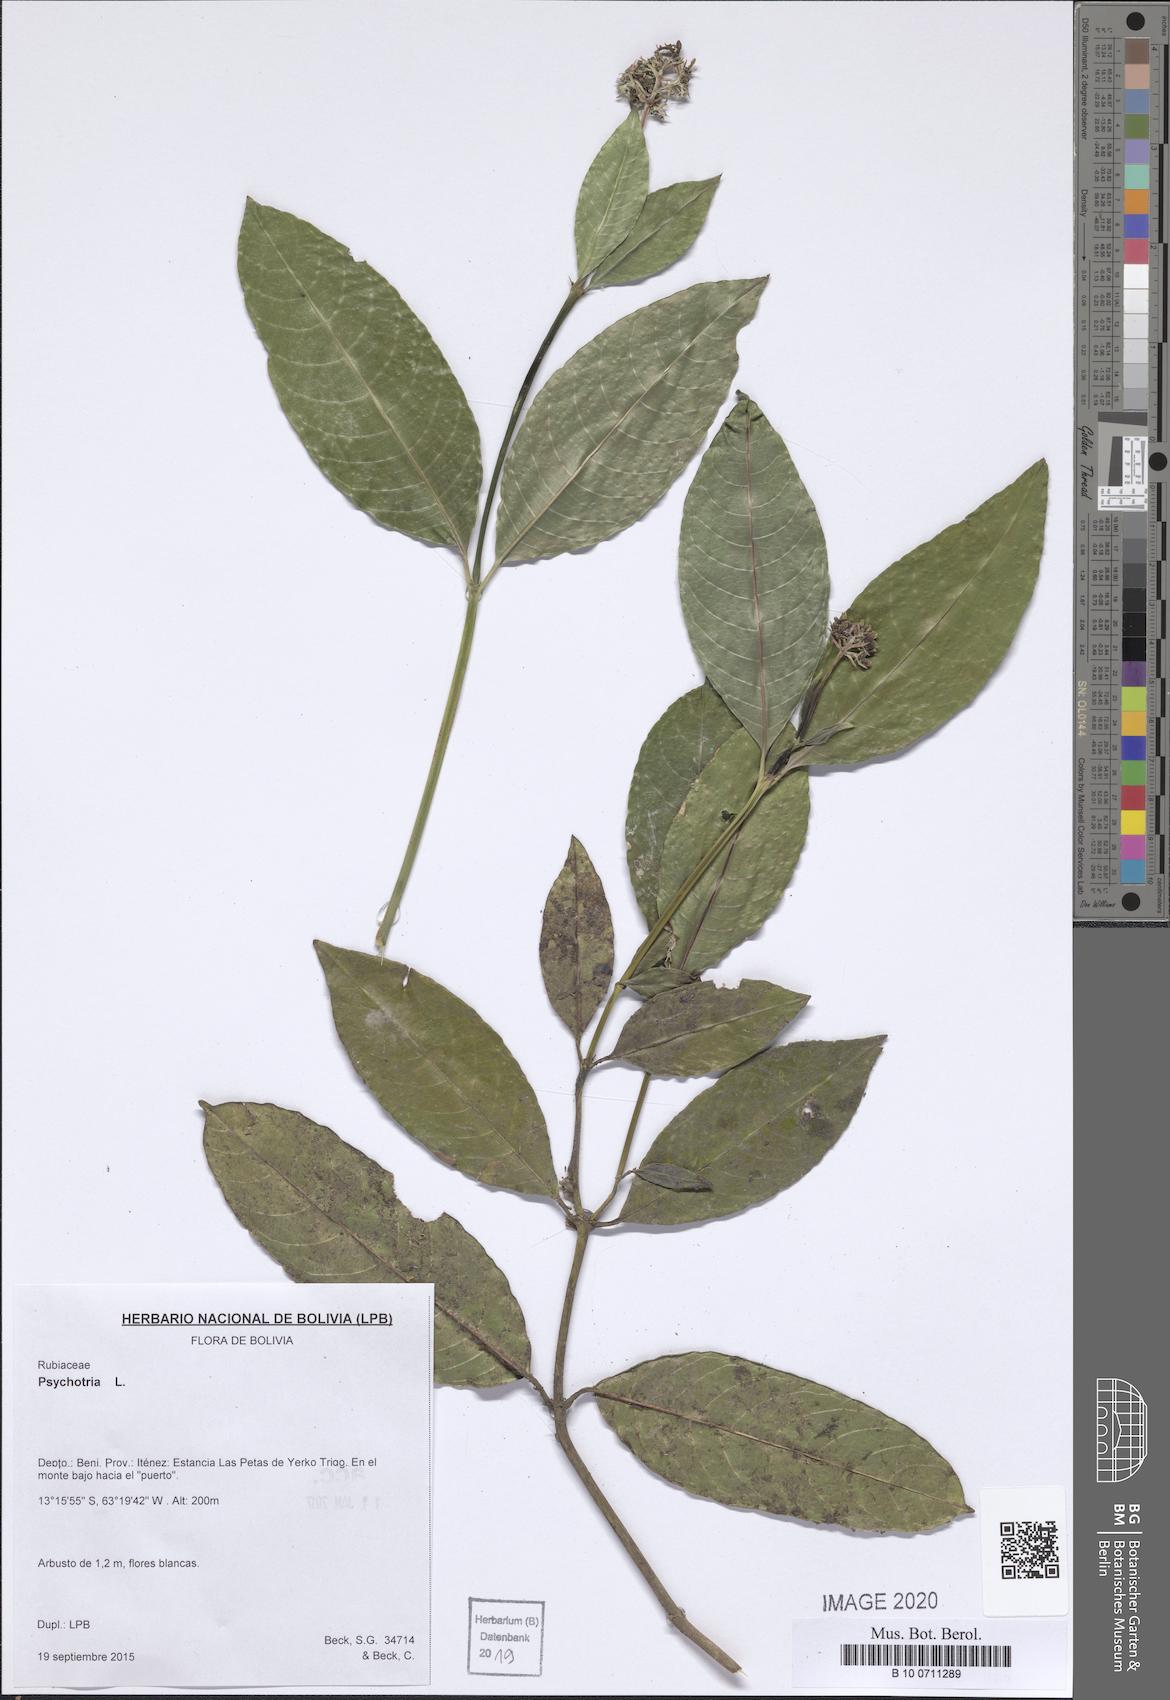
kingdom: Plantae
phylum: Tracheophyta
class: Magnoliopsida
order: Gentianales
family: Rubiaceae
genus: Psychotria
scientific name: Psychotria
